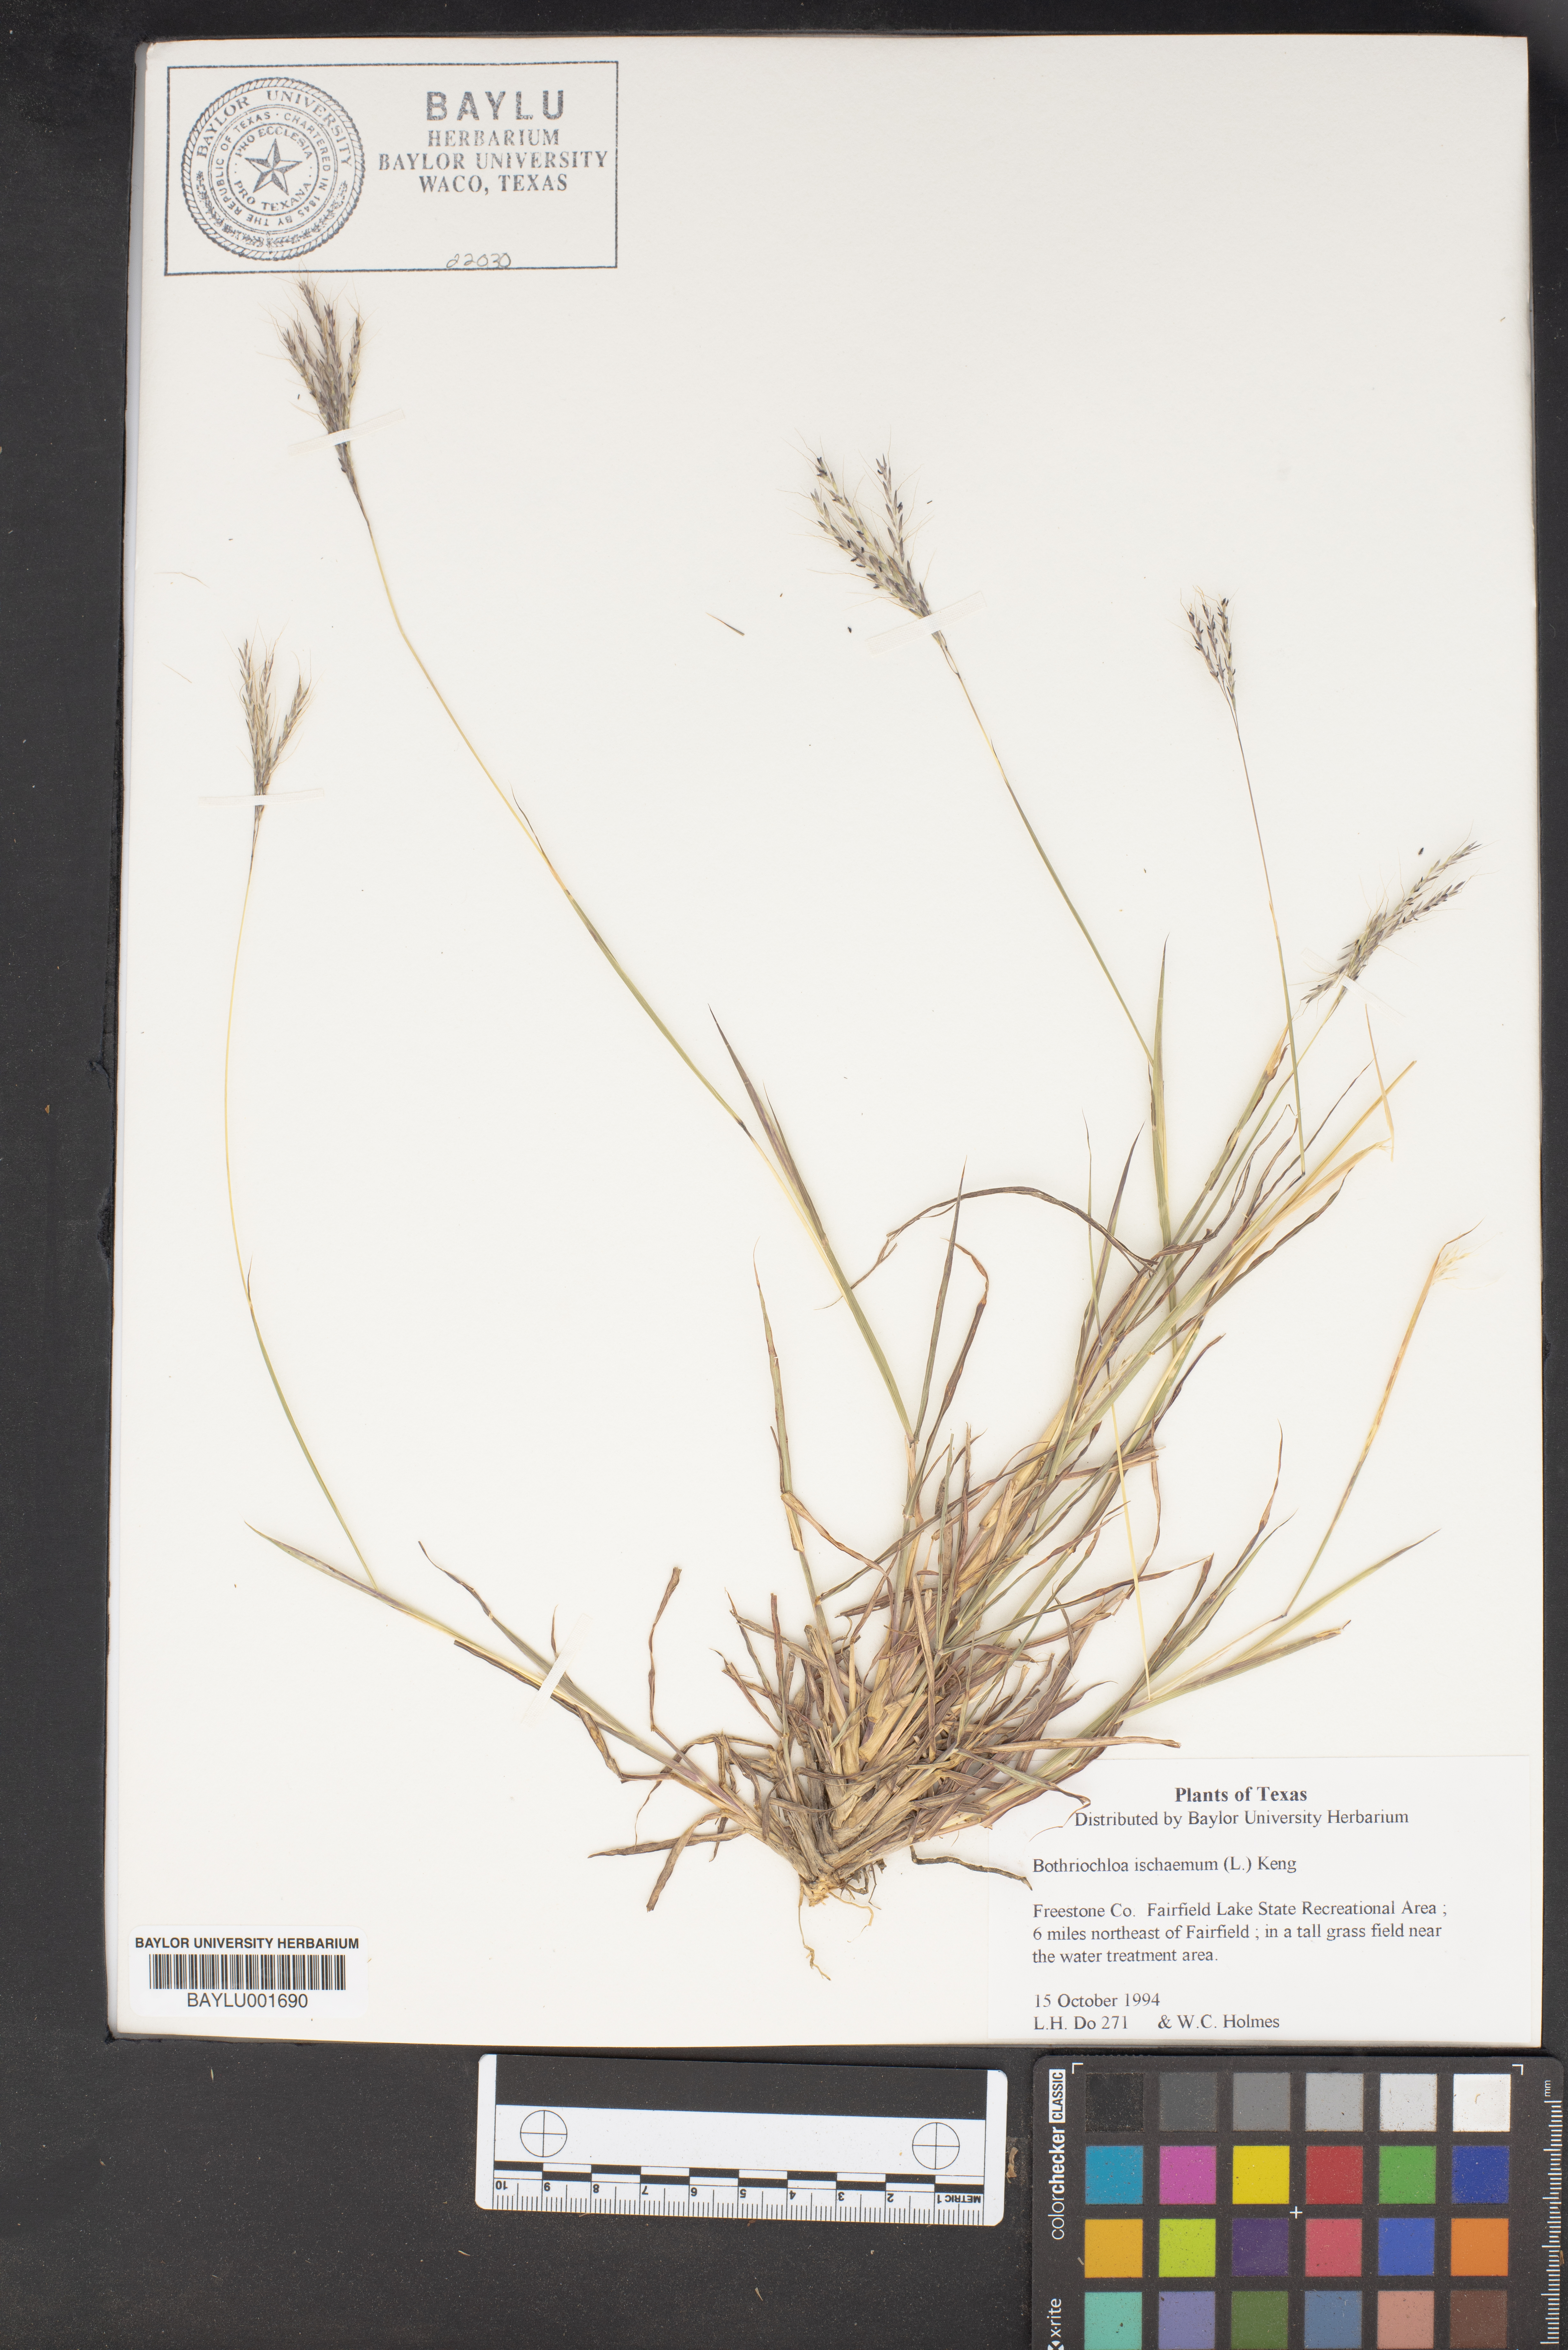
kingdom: Plantae
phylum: Tracheophyta
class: Liliopsida
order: Poales
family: Poaceae
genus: Bothriochloa
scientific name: Bothriochloa ischaemum
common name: Yellow bluestem
